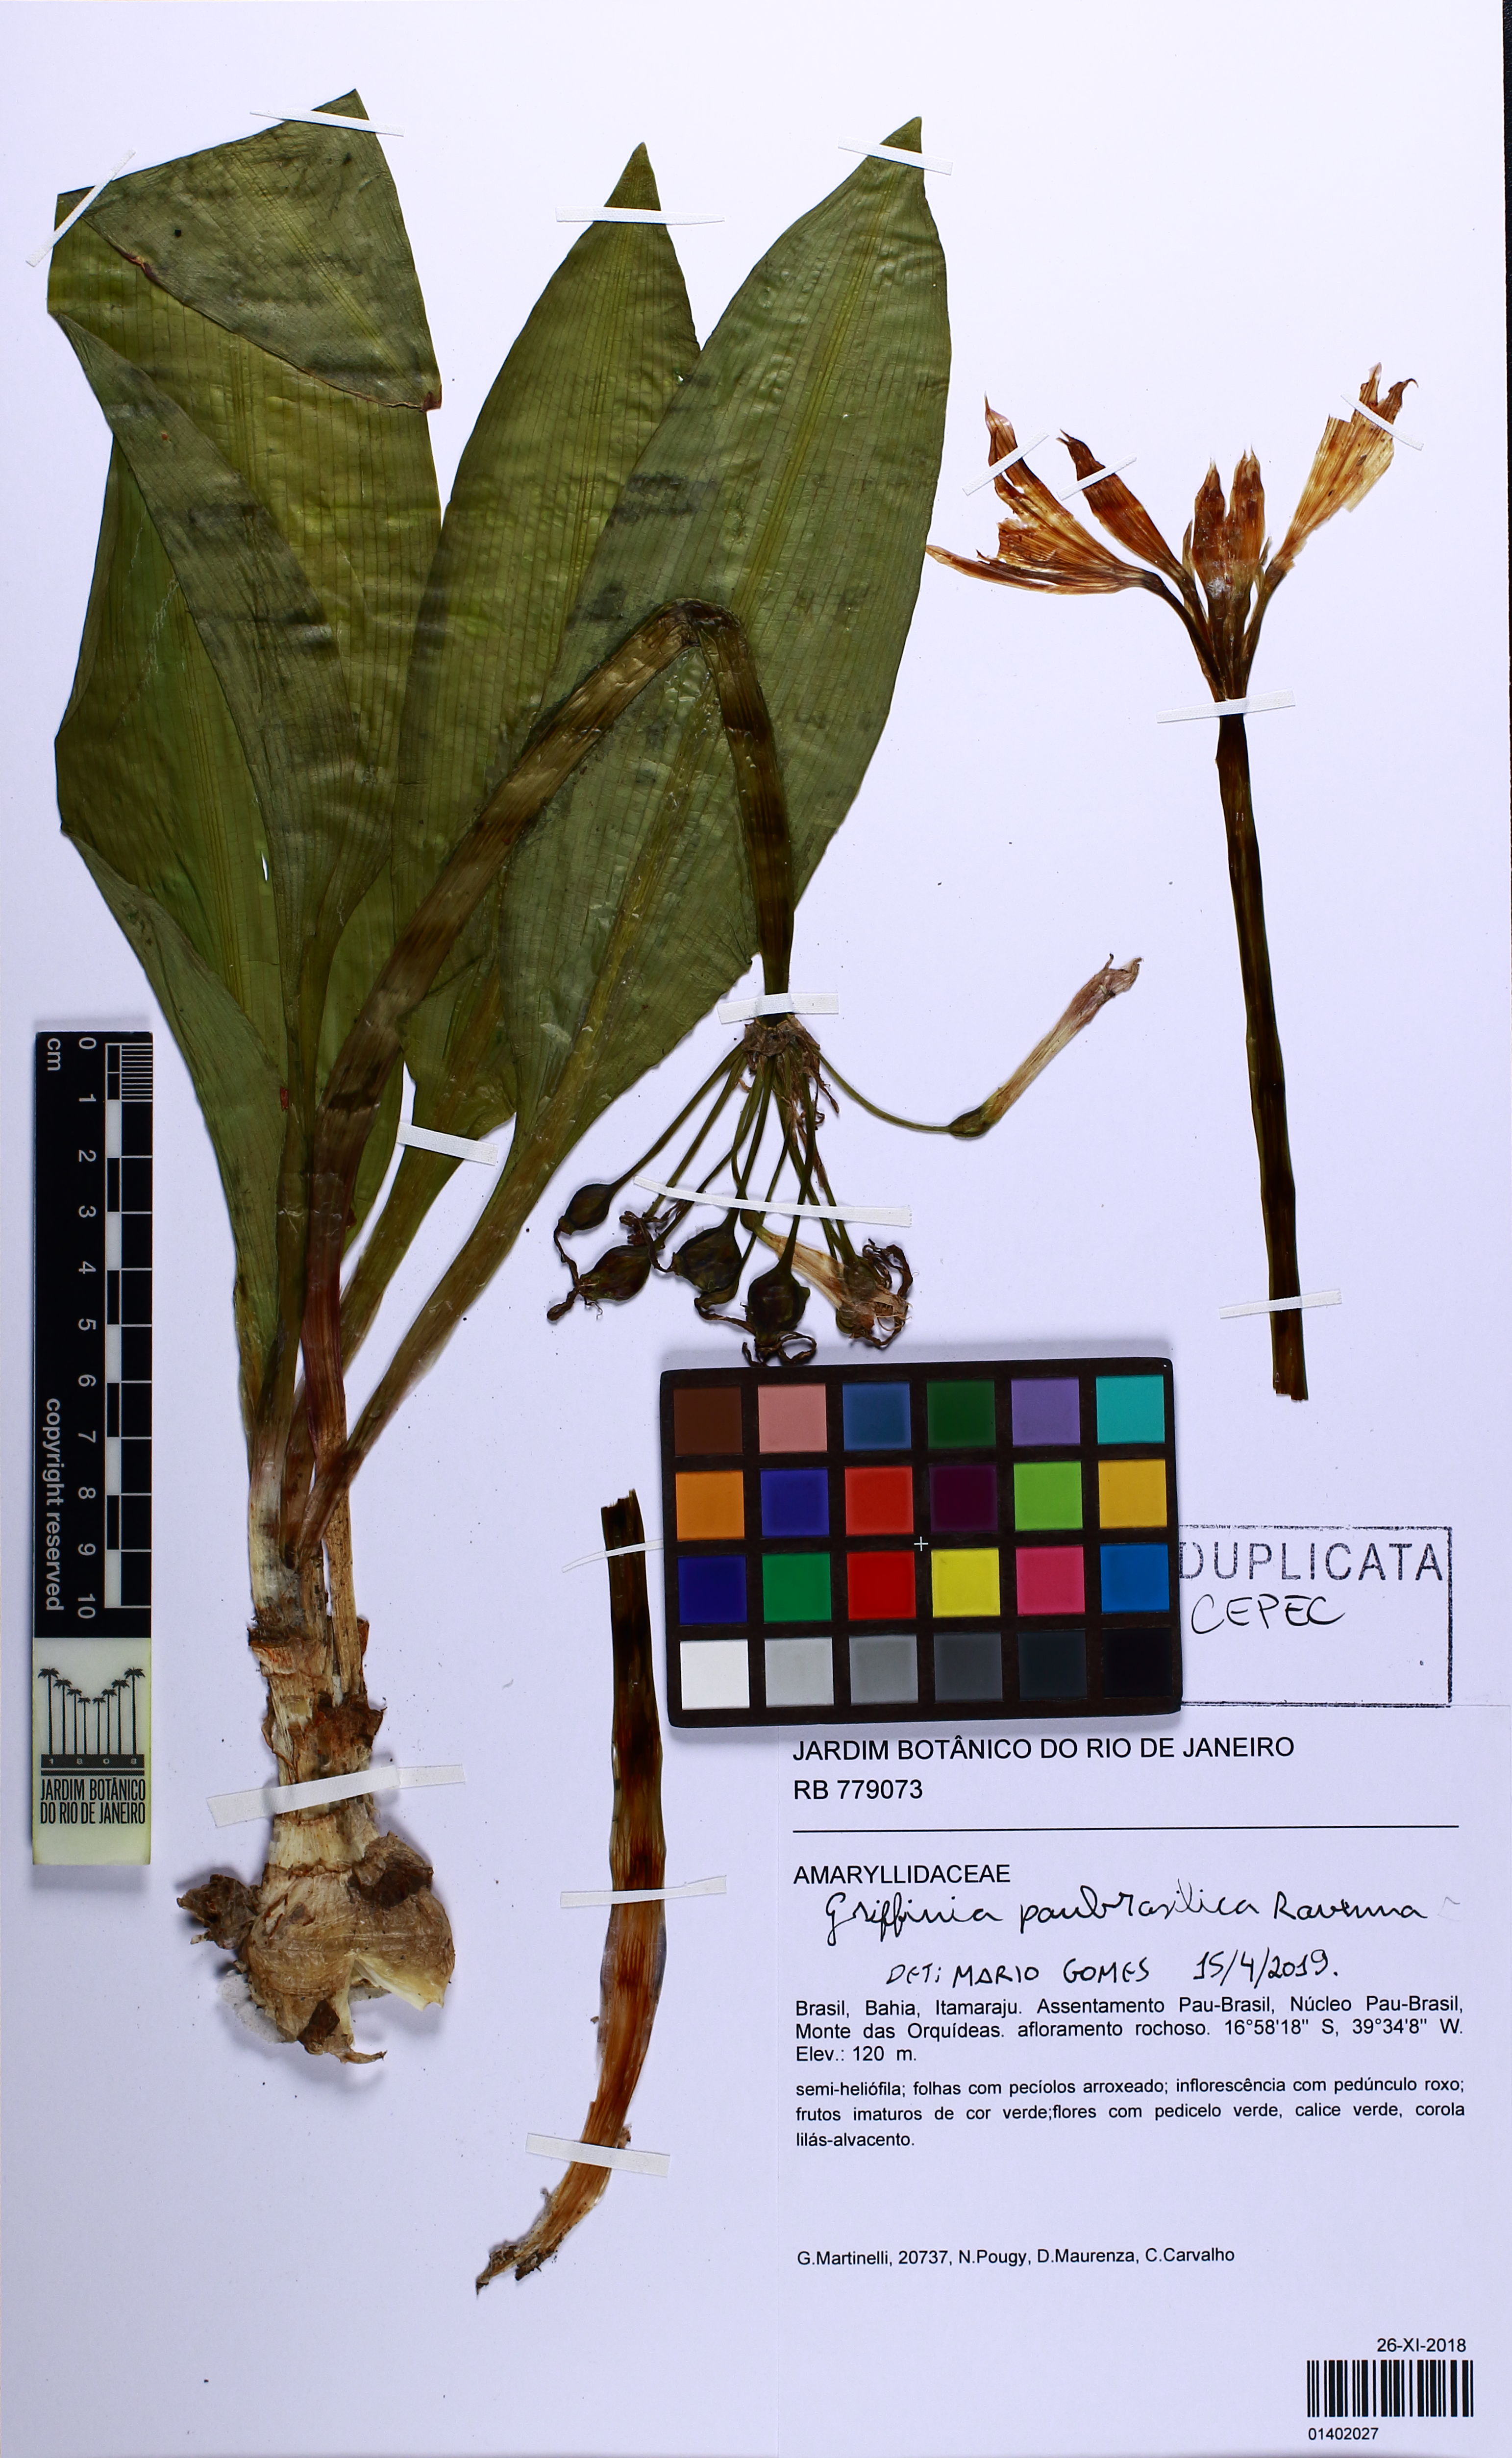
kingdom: Plantae
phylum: Tracheophyta
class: Liliopsida
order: Asparagales
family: Amaryllidaceae
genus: Griffinia
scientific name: Griffinia paubrasilica
